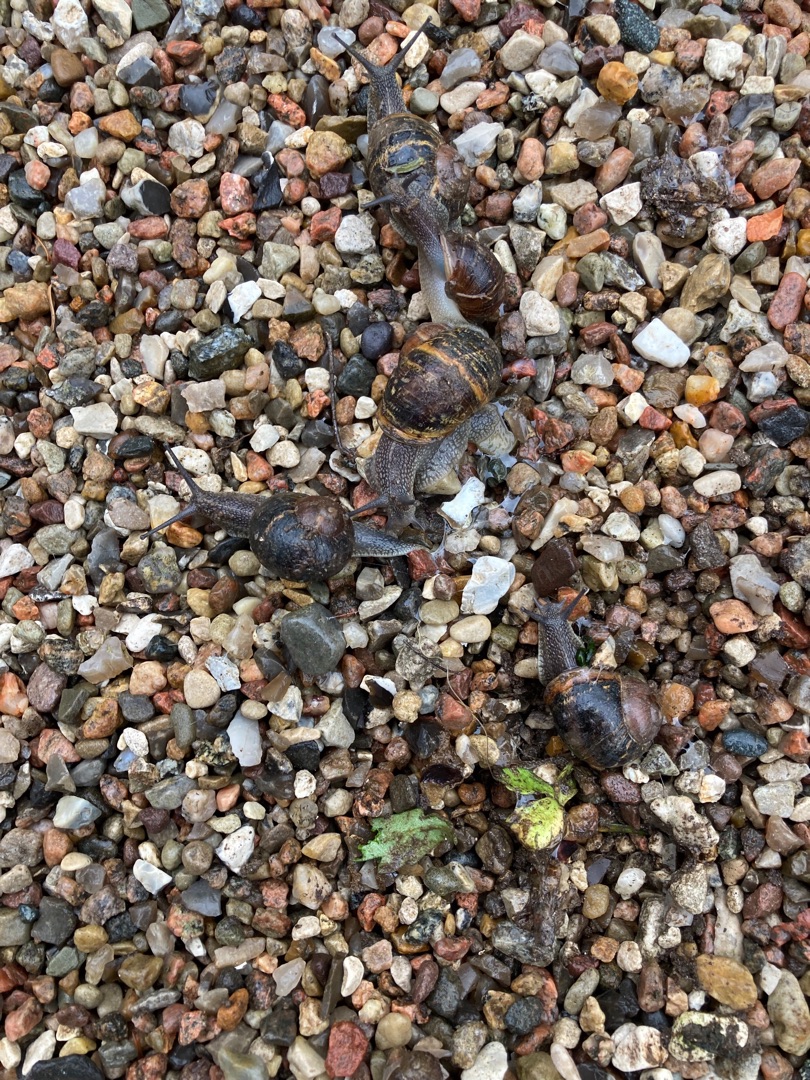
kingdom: Animalia
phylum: Mollusca
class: Gastropoda
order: Stylommatophora
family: Helicidae
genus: Cornu
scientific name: Cornu aspersum
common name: Plettet voldsnegl
